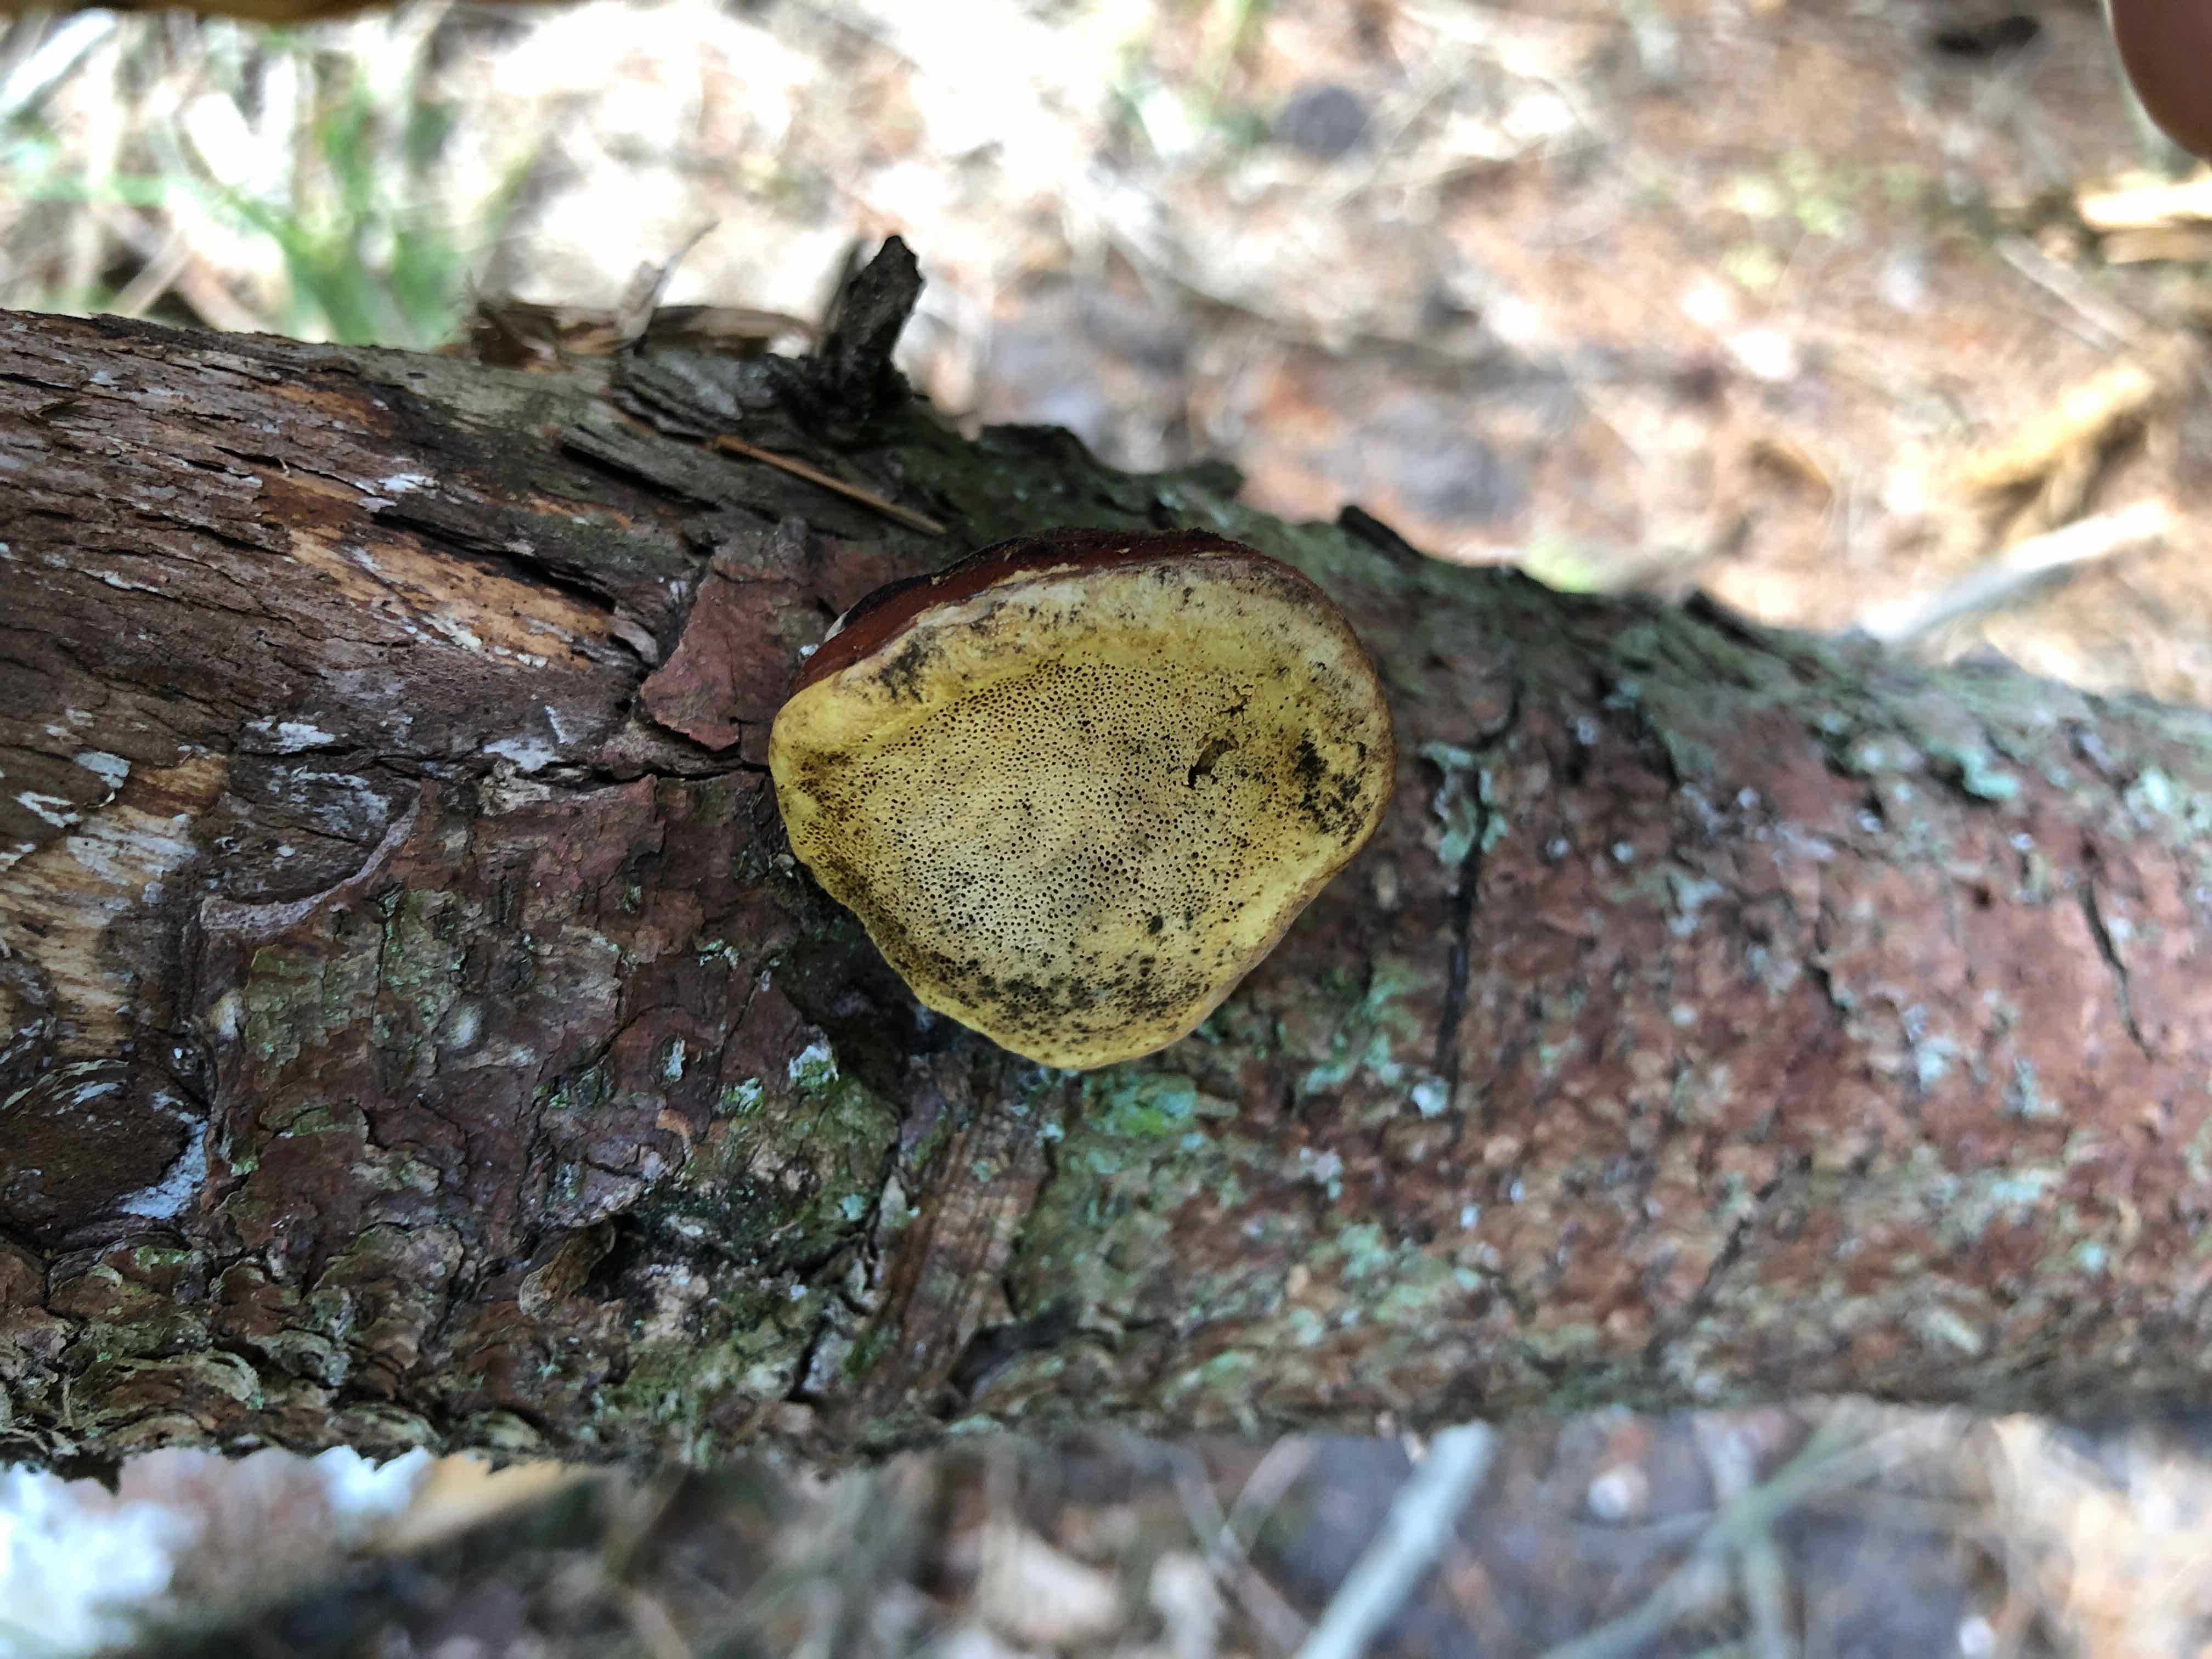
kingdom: Fungi
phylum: Basidiomycota
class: Agaricomycetes
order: Polyporales
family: Fomitopsidaceae
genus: Fomitopsis
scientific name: Fomitopsis pinicola
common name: randbæltet hovporesvamp
